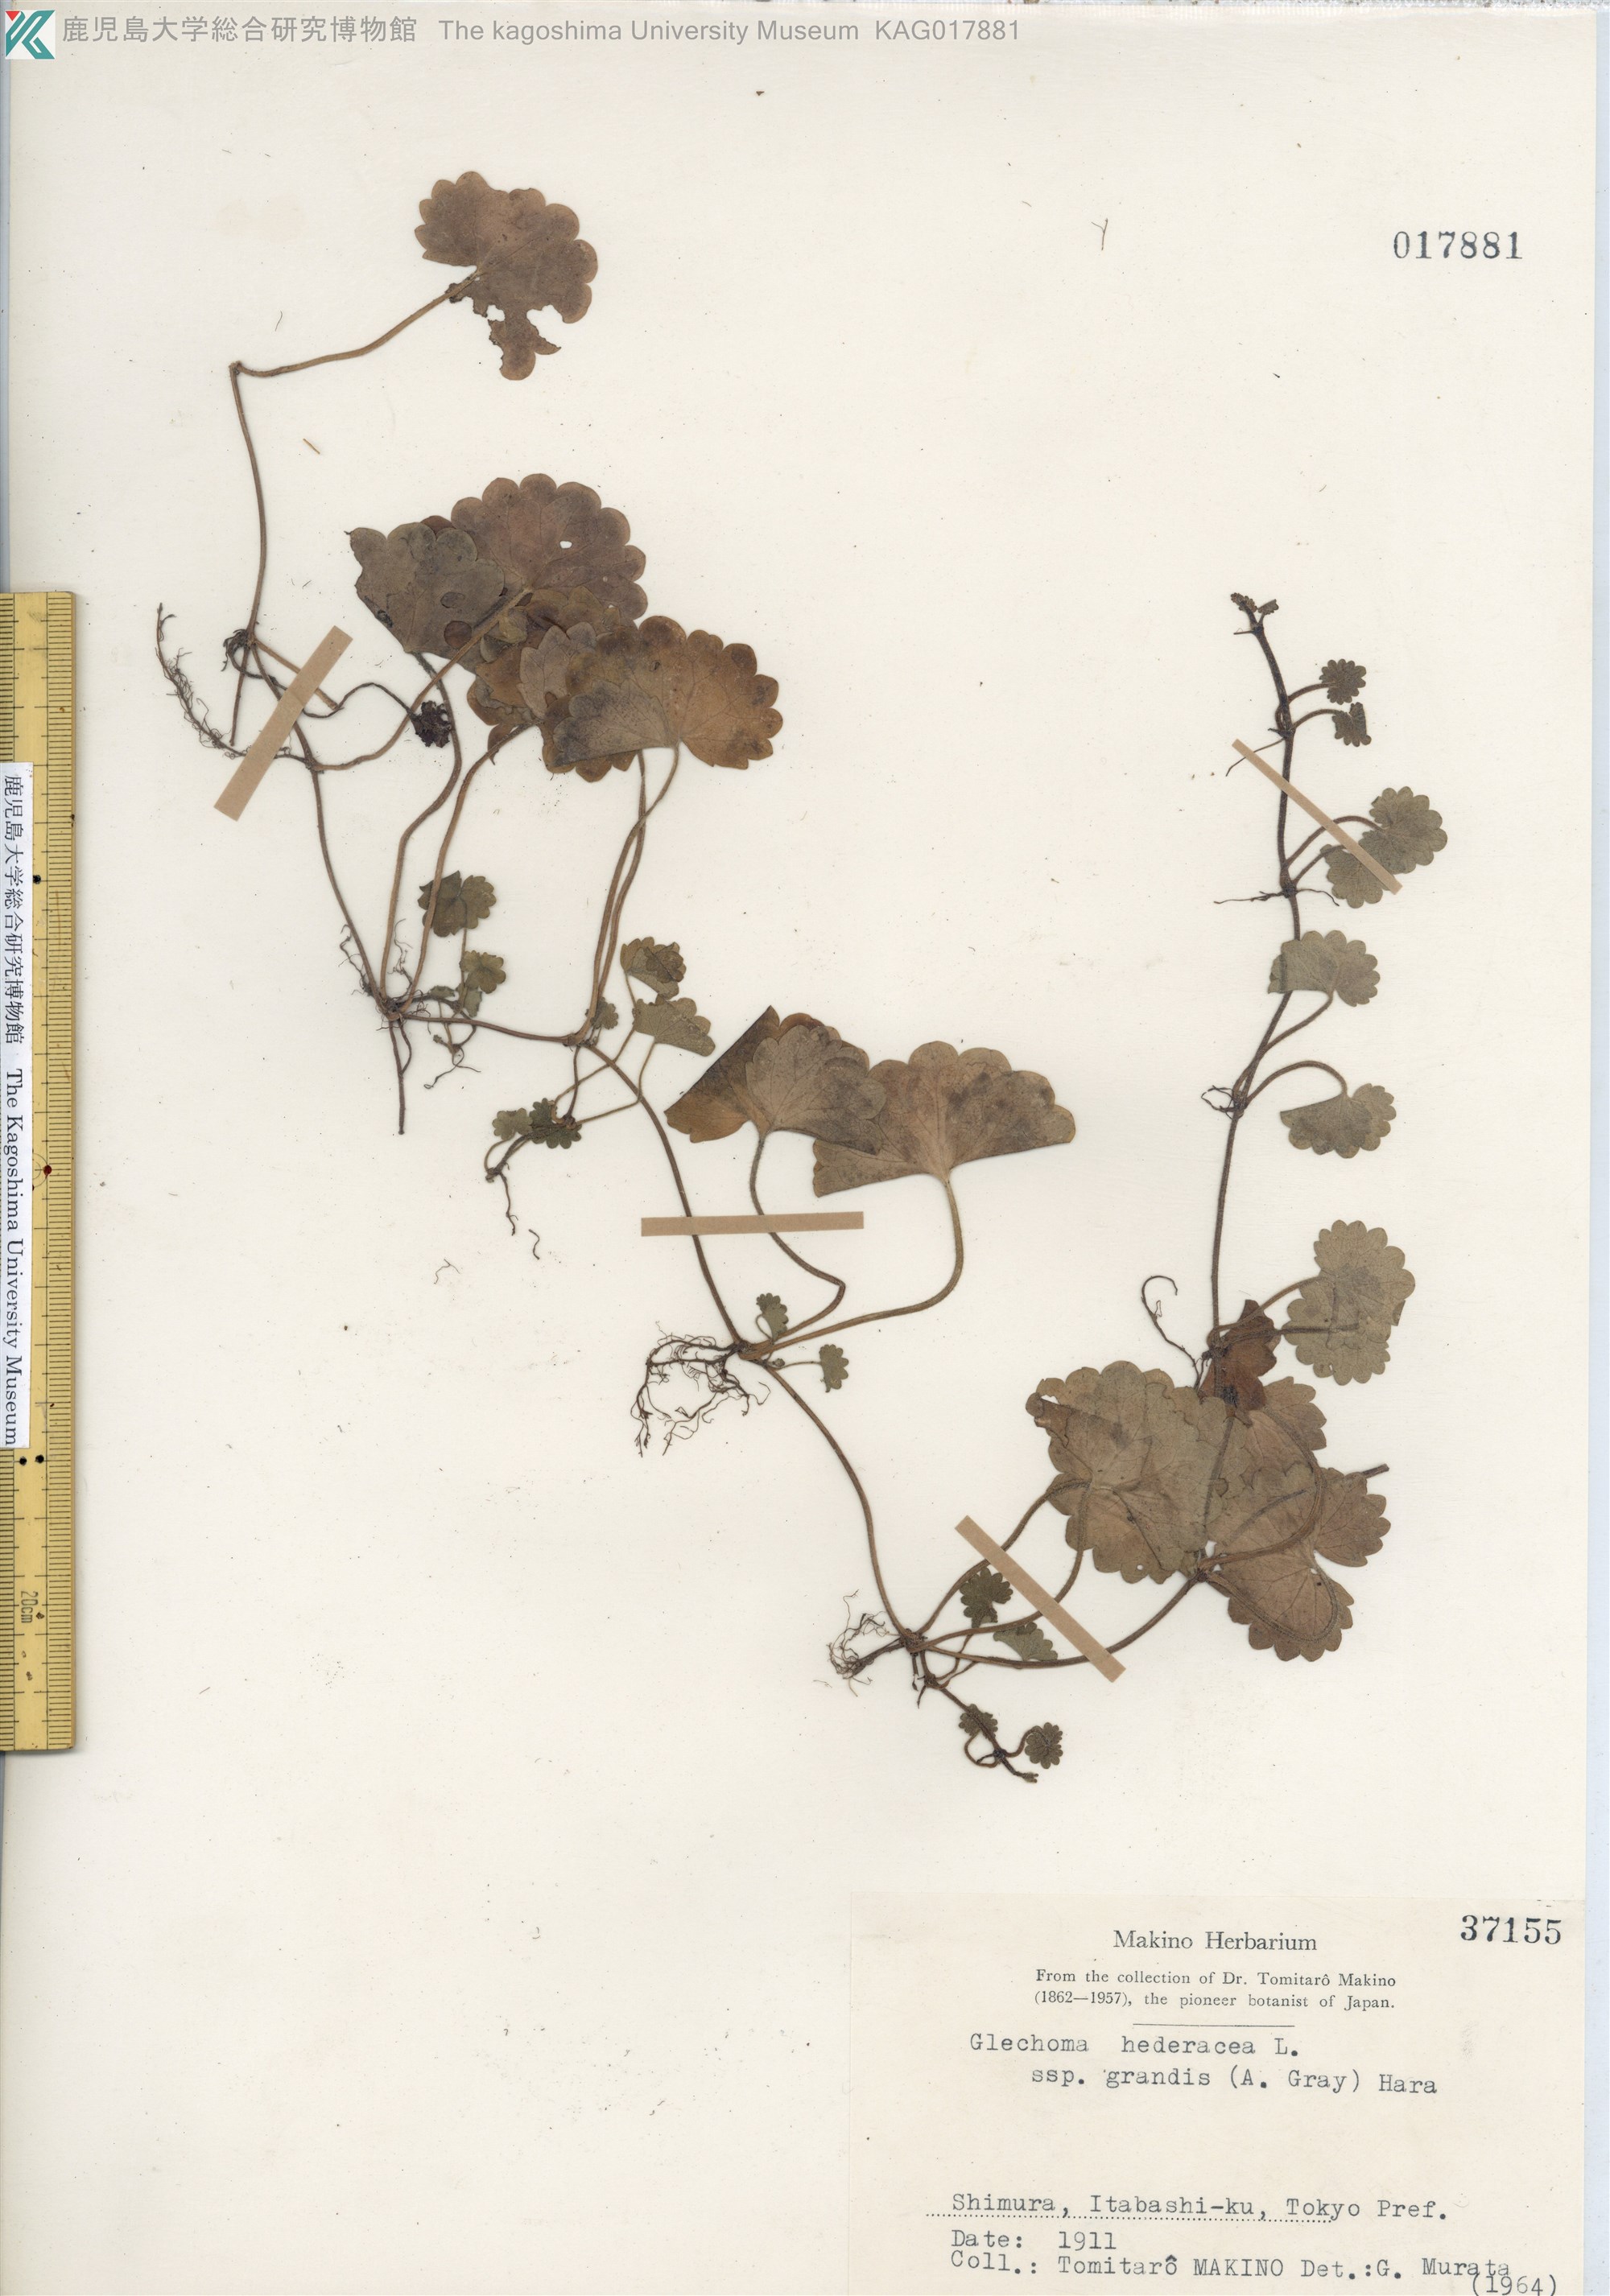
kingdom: Plantae
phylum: Tracheophyta
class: Magnoliopsida
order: Lamiales
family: Lamiaceae
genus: Glechoma
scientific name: Glechoma grandis
